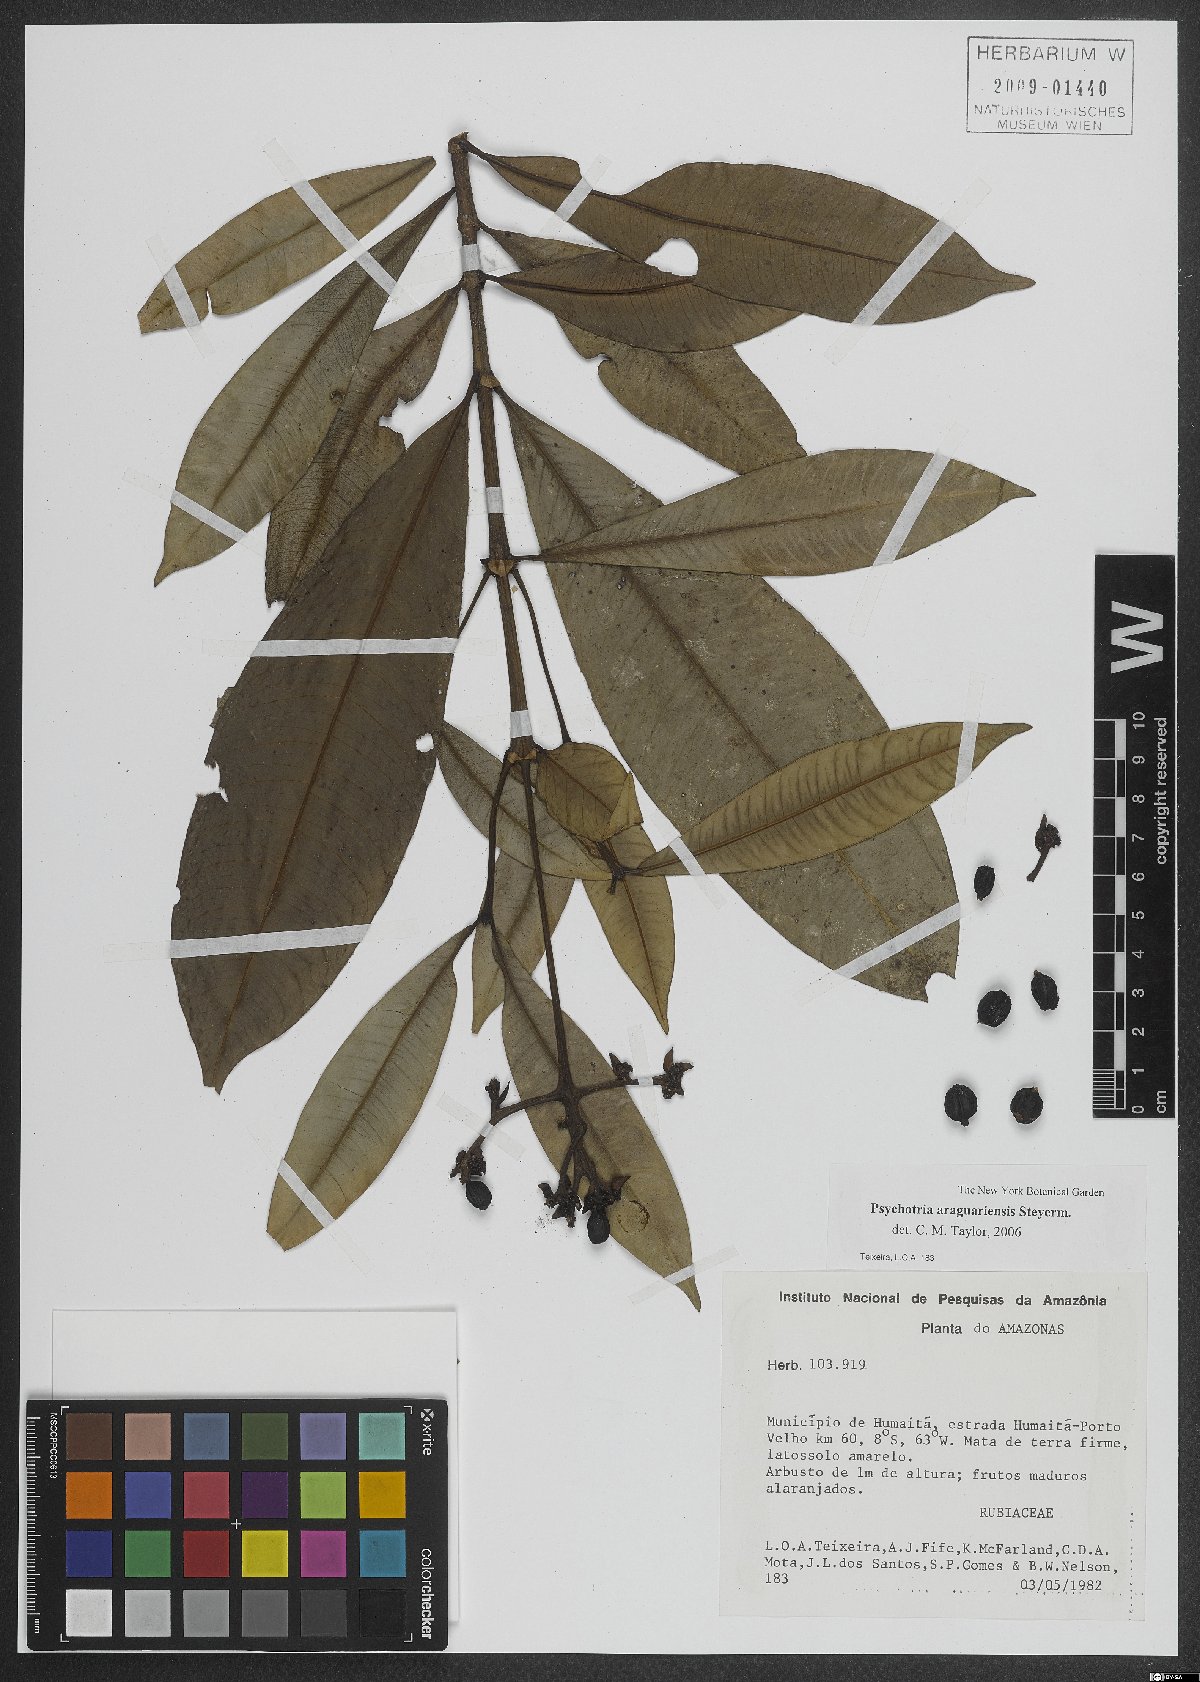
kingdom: Plantae
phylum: Tracheophyta
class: Magnoliopsida
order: Gentianales
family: Rubiaceae
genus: Carapichea
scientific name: Carapichea araguariensis
